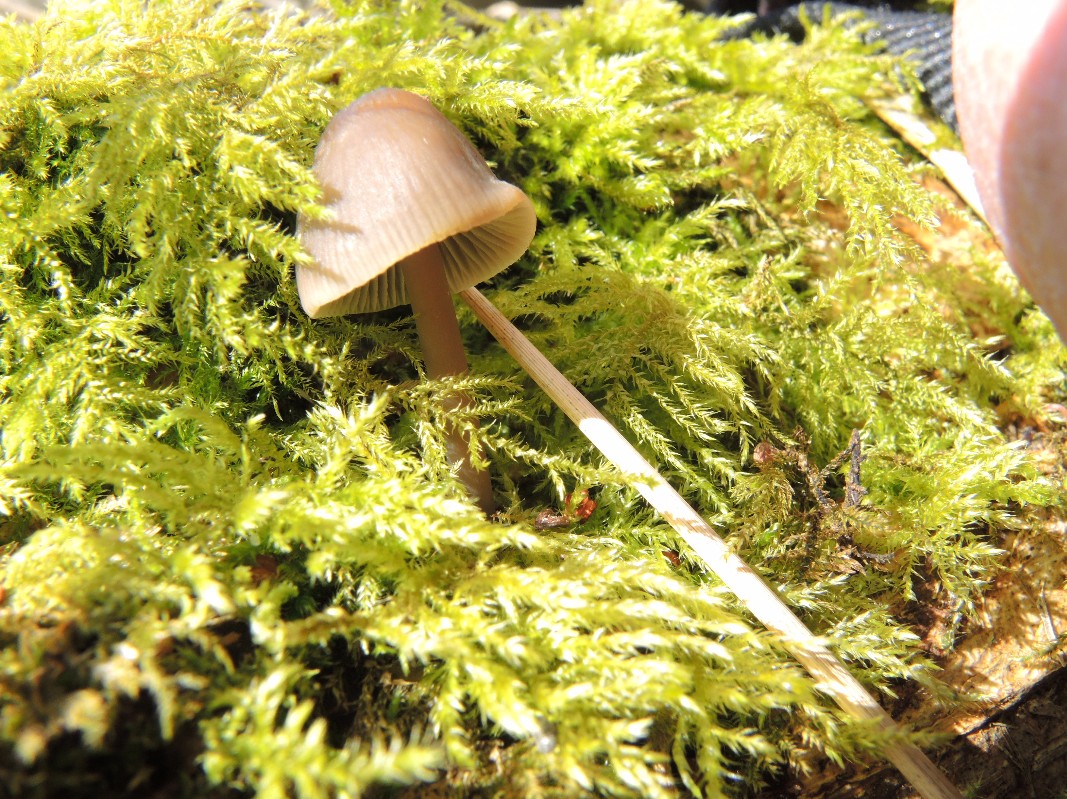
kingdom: Fungi
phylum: Basidiomycota
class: Agaricomycetes
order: Agaricales
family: Mycenaceae
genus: Mycena
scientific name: Mycena galericulata
